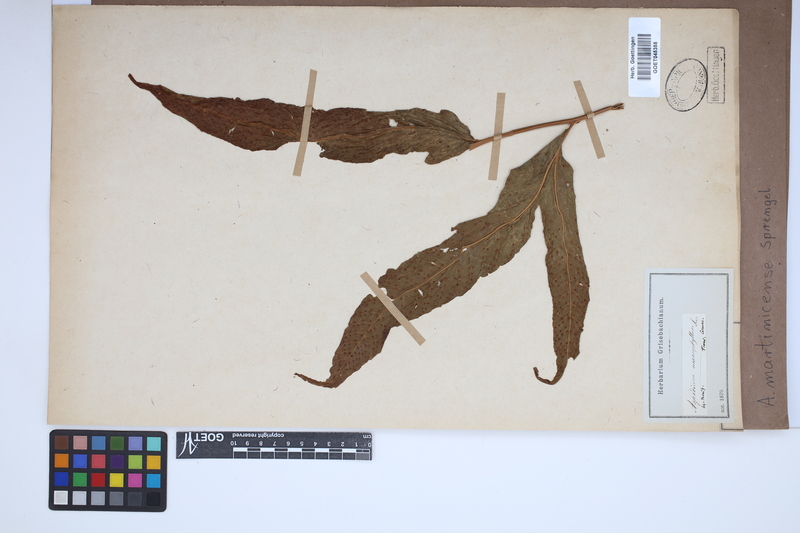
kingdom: Plantae
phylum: Tracheophyta
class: Polypodiopsida
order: Polypodiales
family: Tectariaceae
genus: Tectaria
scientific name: Tectaria incisa
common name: Incised halberd fern
